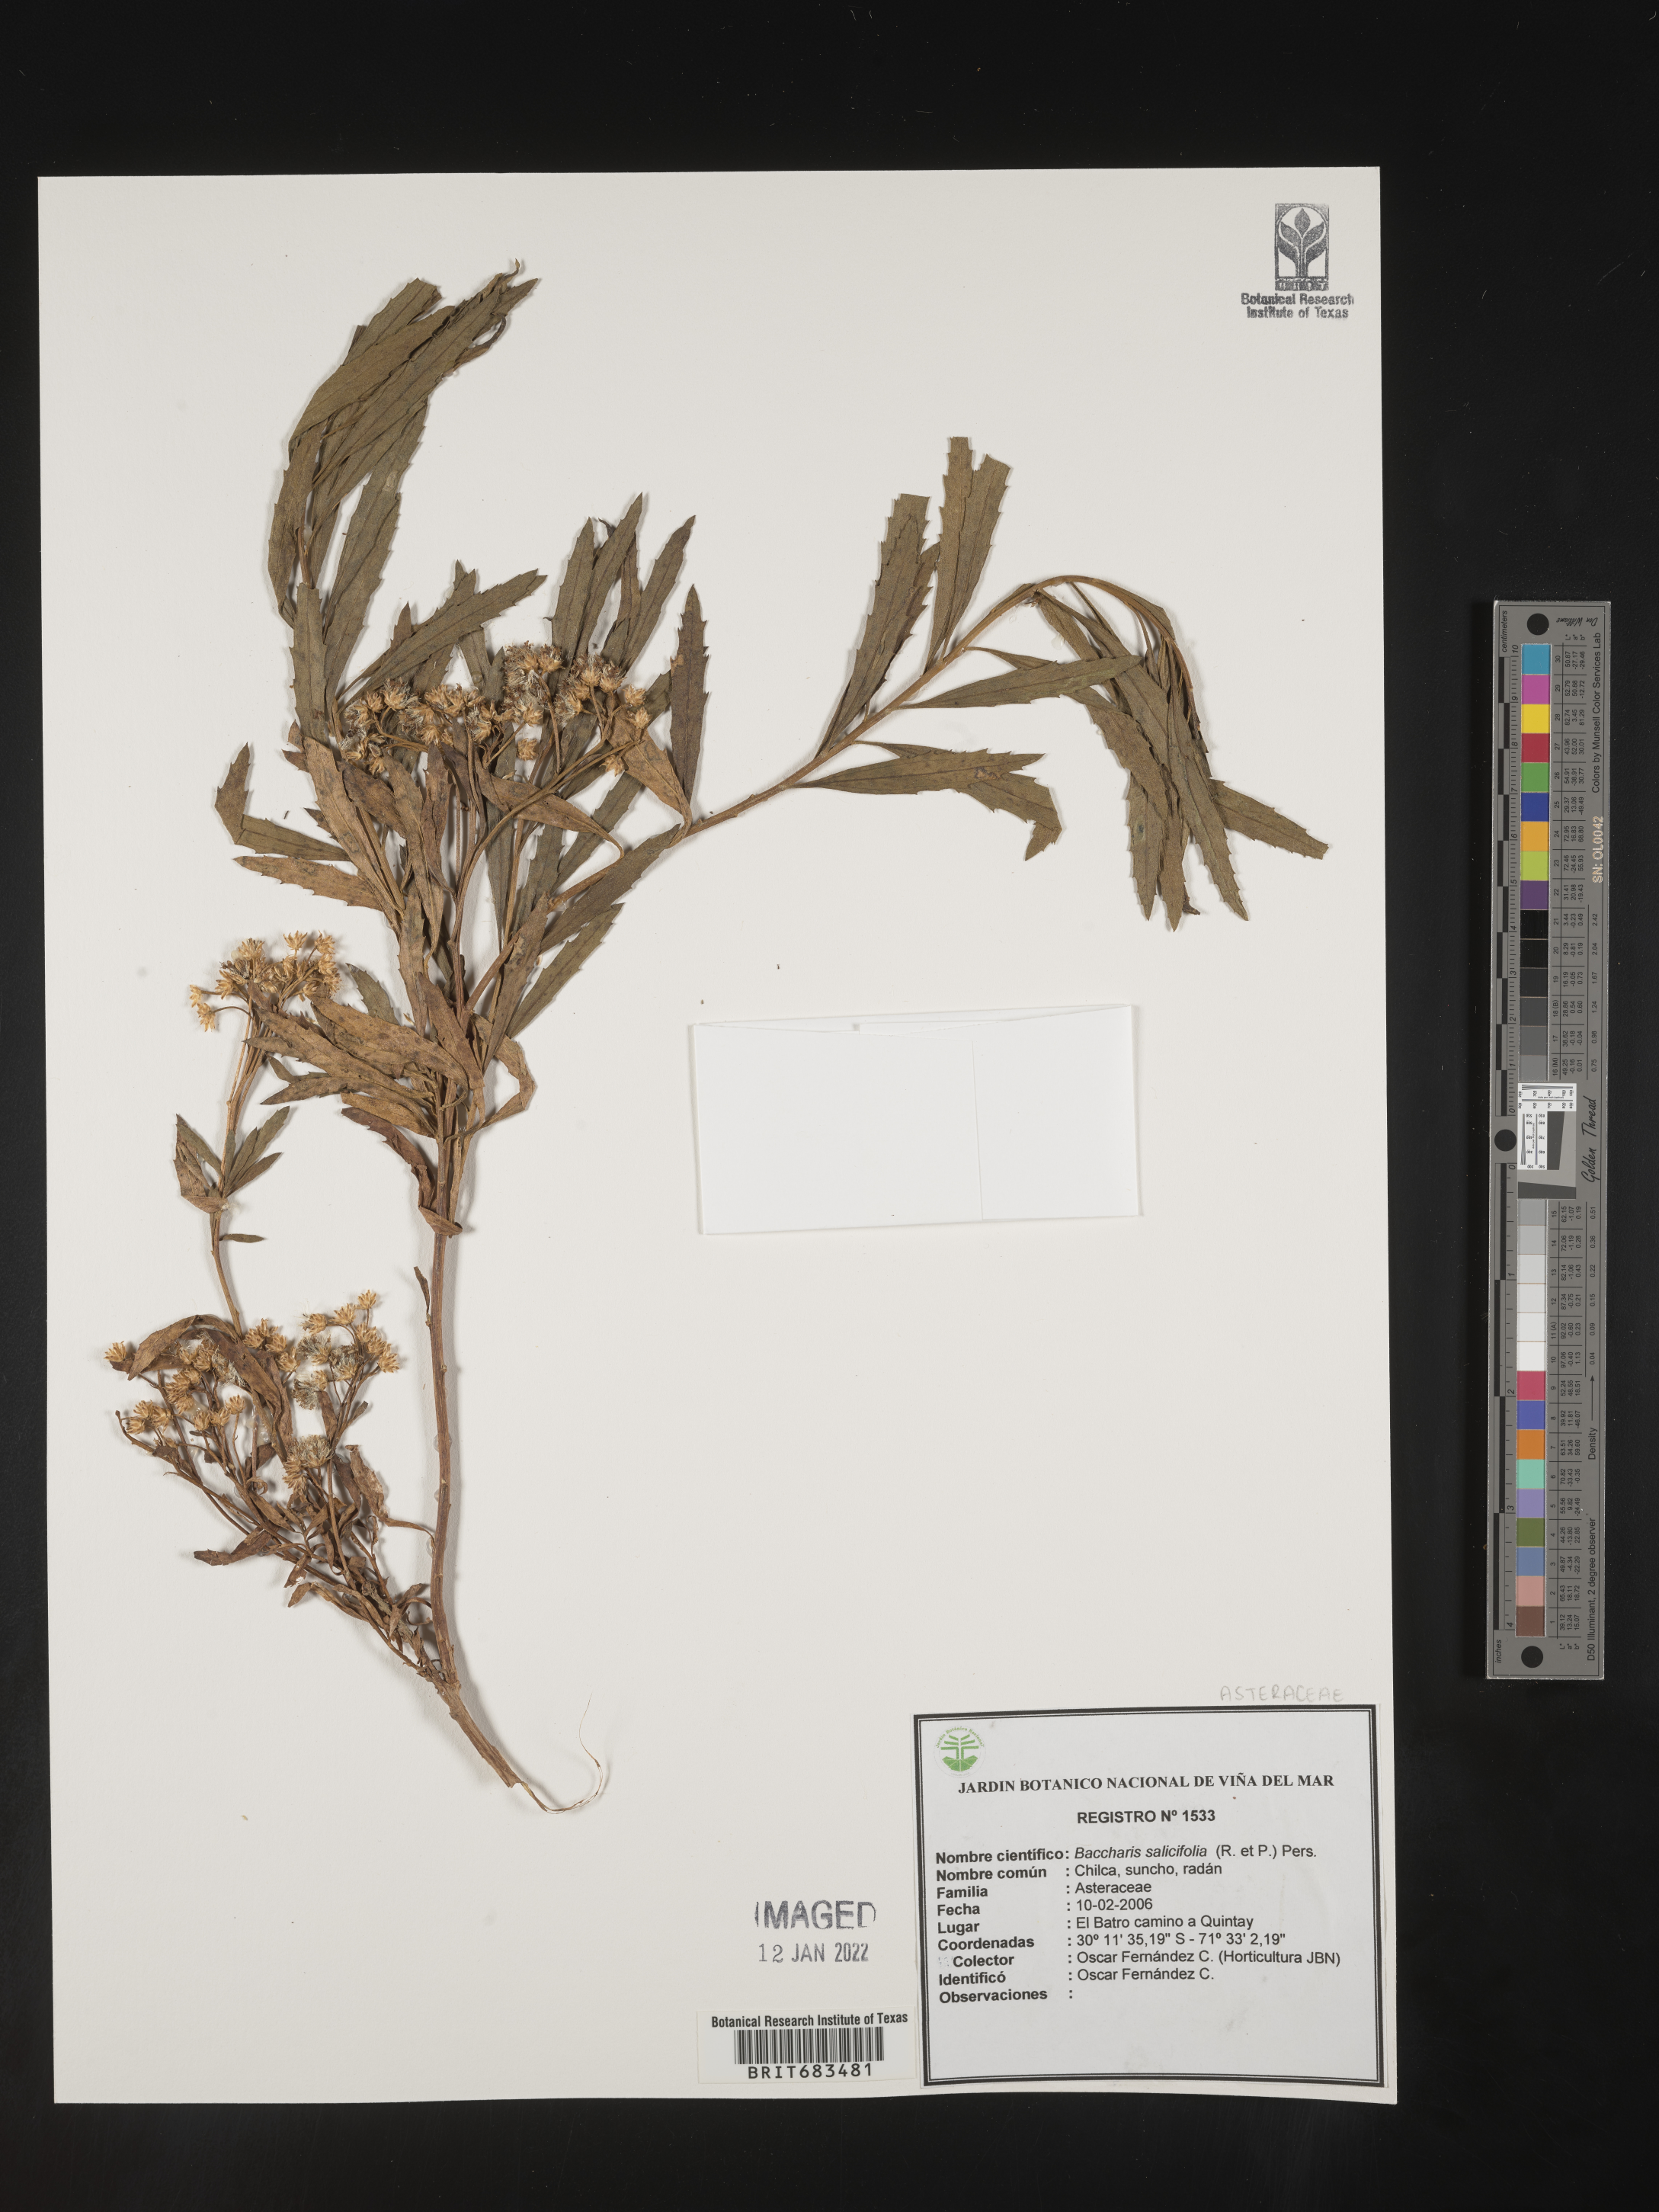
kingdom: Plantae
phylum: Tracheophyta
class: Magnoliopsida
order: Asterales
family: Asteraceae
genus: Baccharis
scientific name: Baccharis
